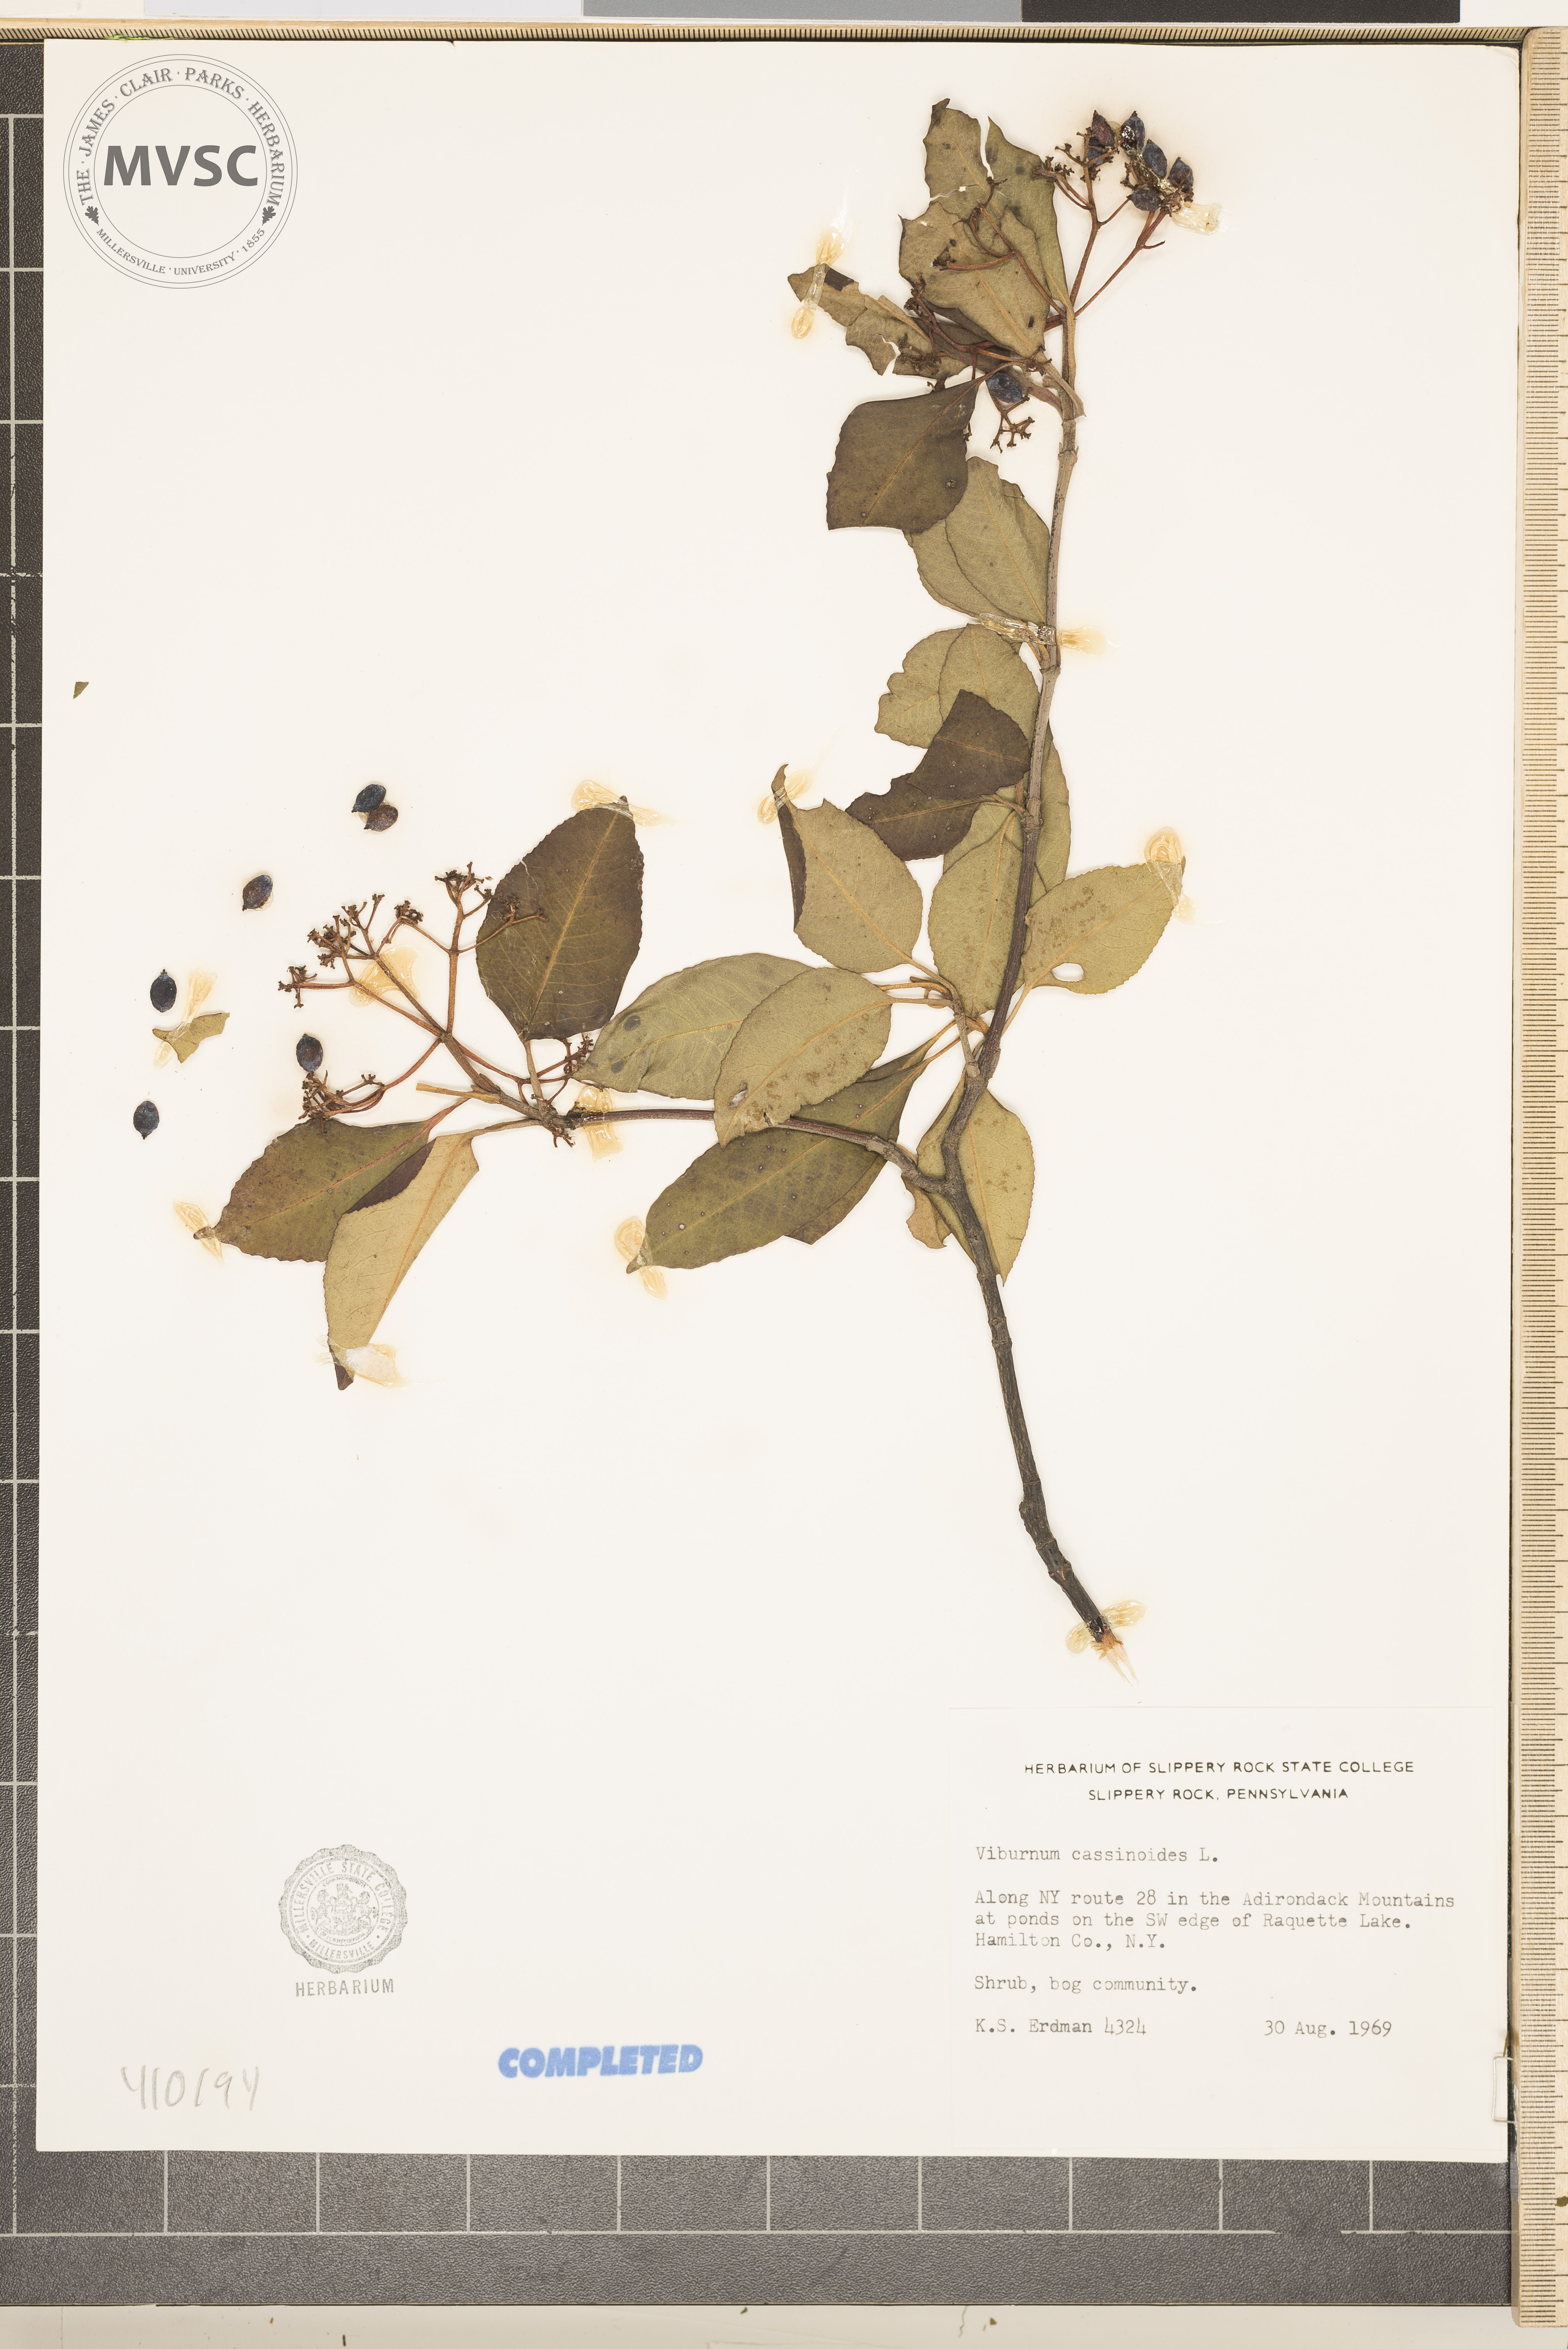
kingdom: Plantae
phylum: Tracheophyta
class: Magnoliopsida
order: Dipsacales
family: Viburnaceae
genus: Viburnum
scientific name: Viburnum cassinoides
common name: Swamp haw
